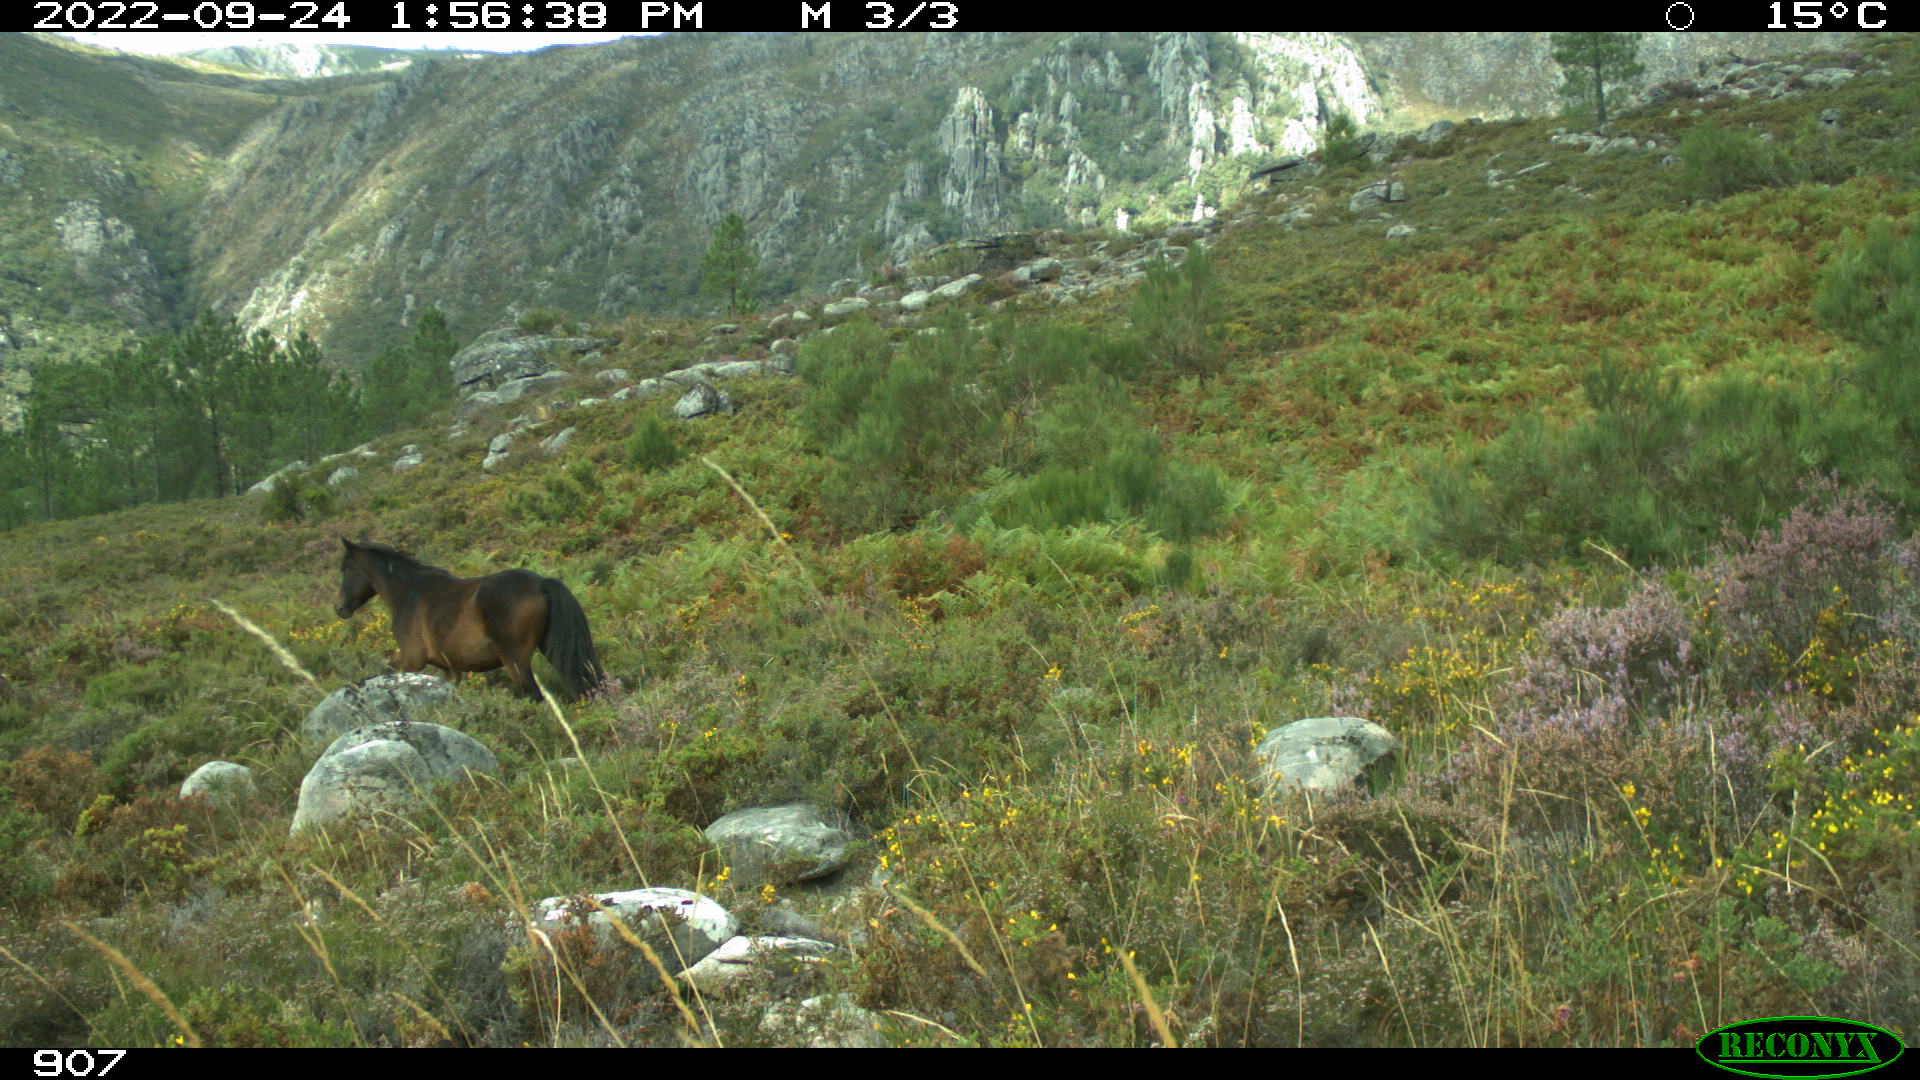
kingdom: Animalia
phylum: Chordata
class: Mammalia
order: Perissodactyla
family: Equidae
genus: Equus
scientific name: Equus caballus
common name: Horse
